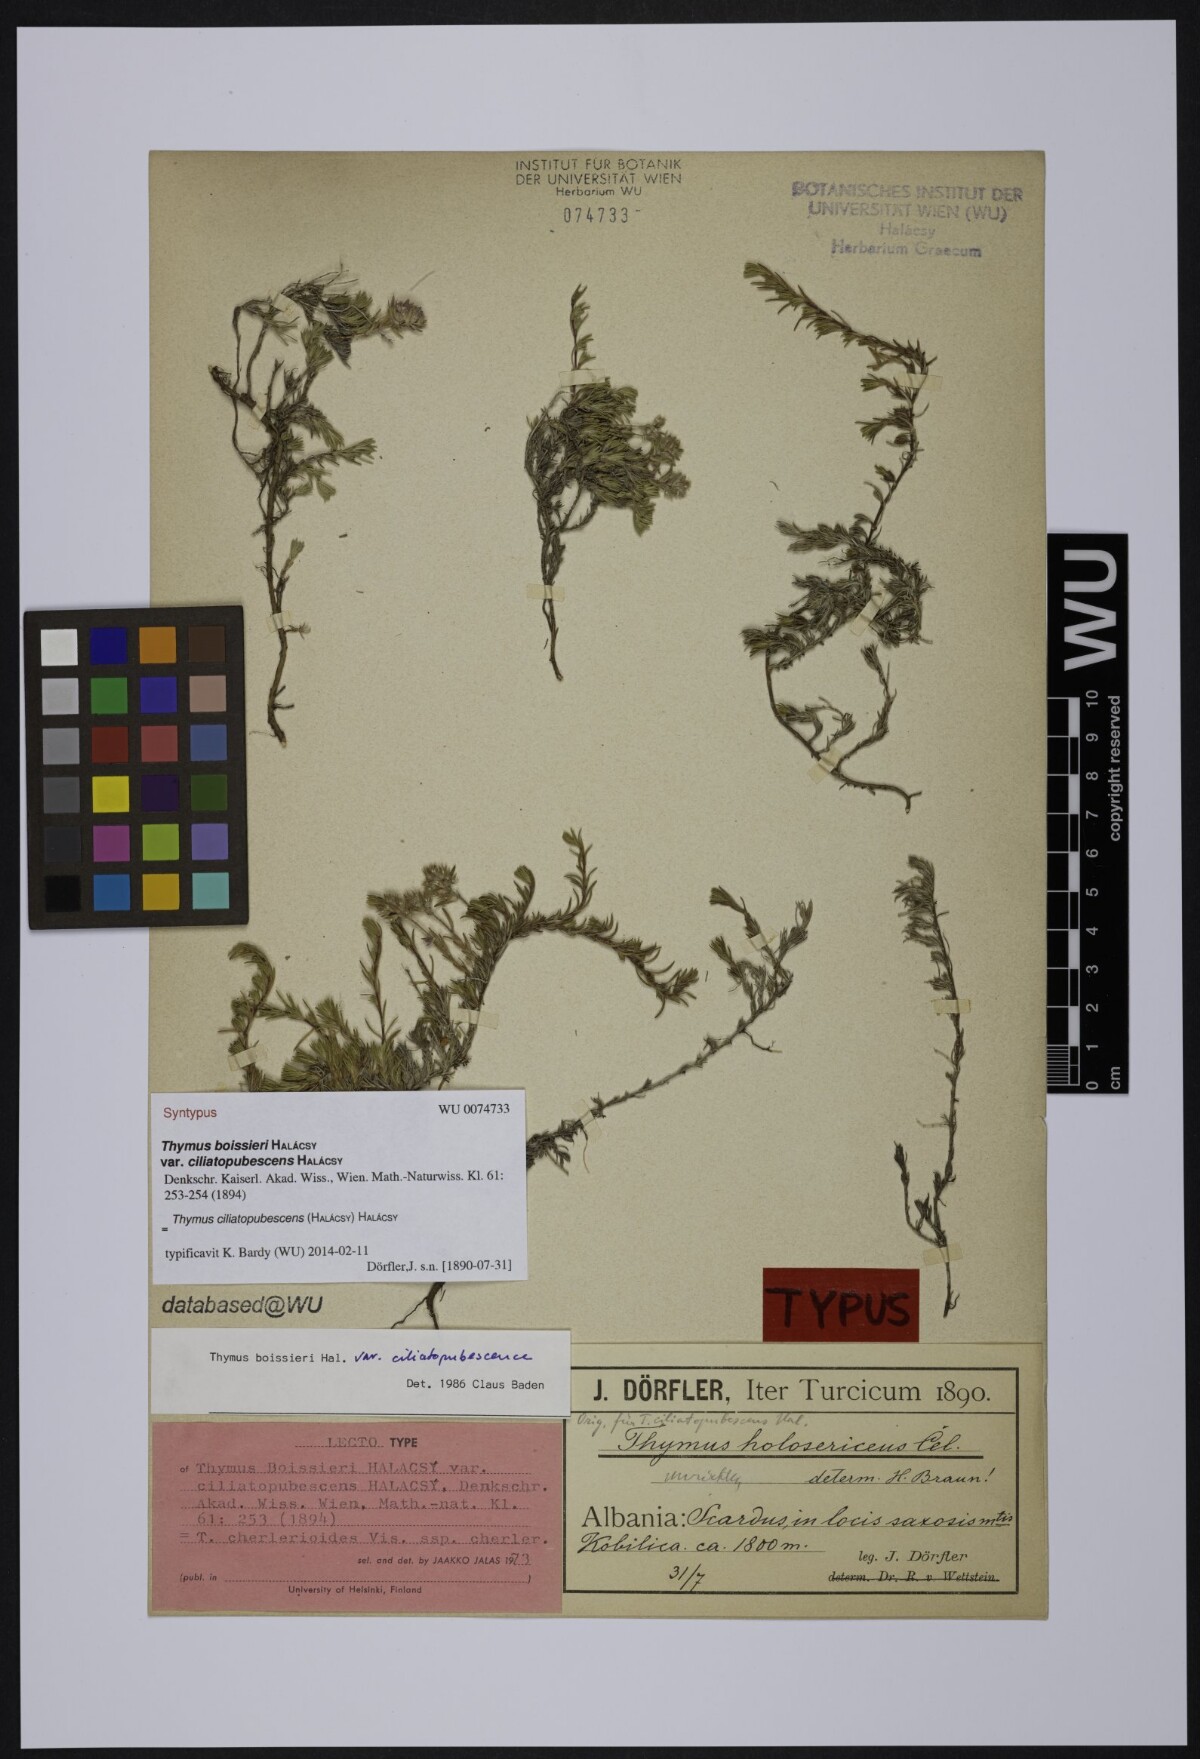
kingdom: Plantae
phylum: Tracheophyta
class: Magnoliopsida
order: Lamiales
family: Lamiaceae
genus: Thymus
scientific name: Thymus boissieri
